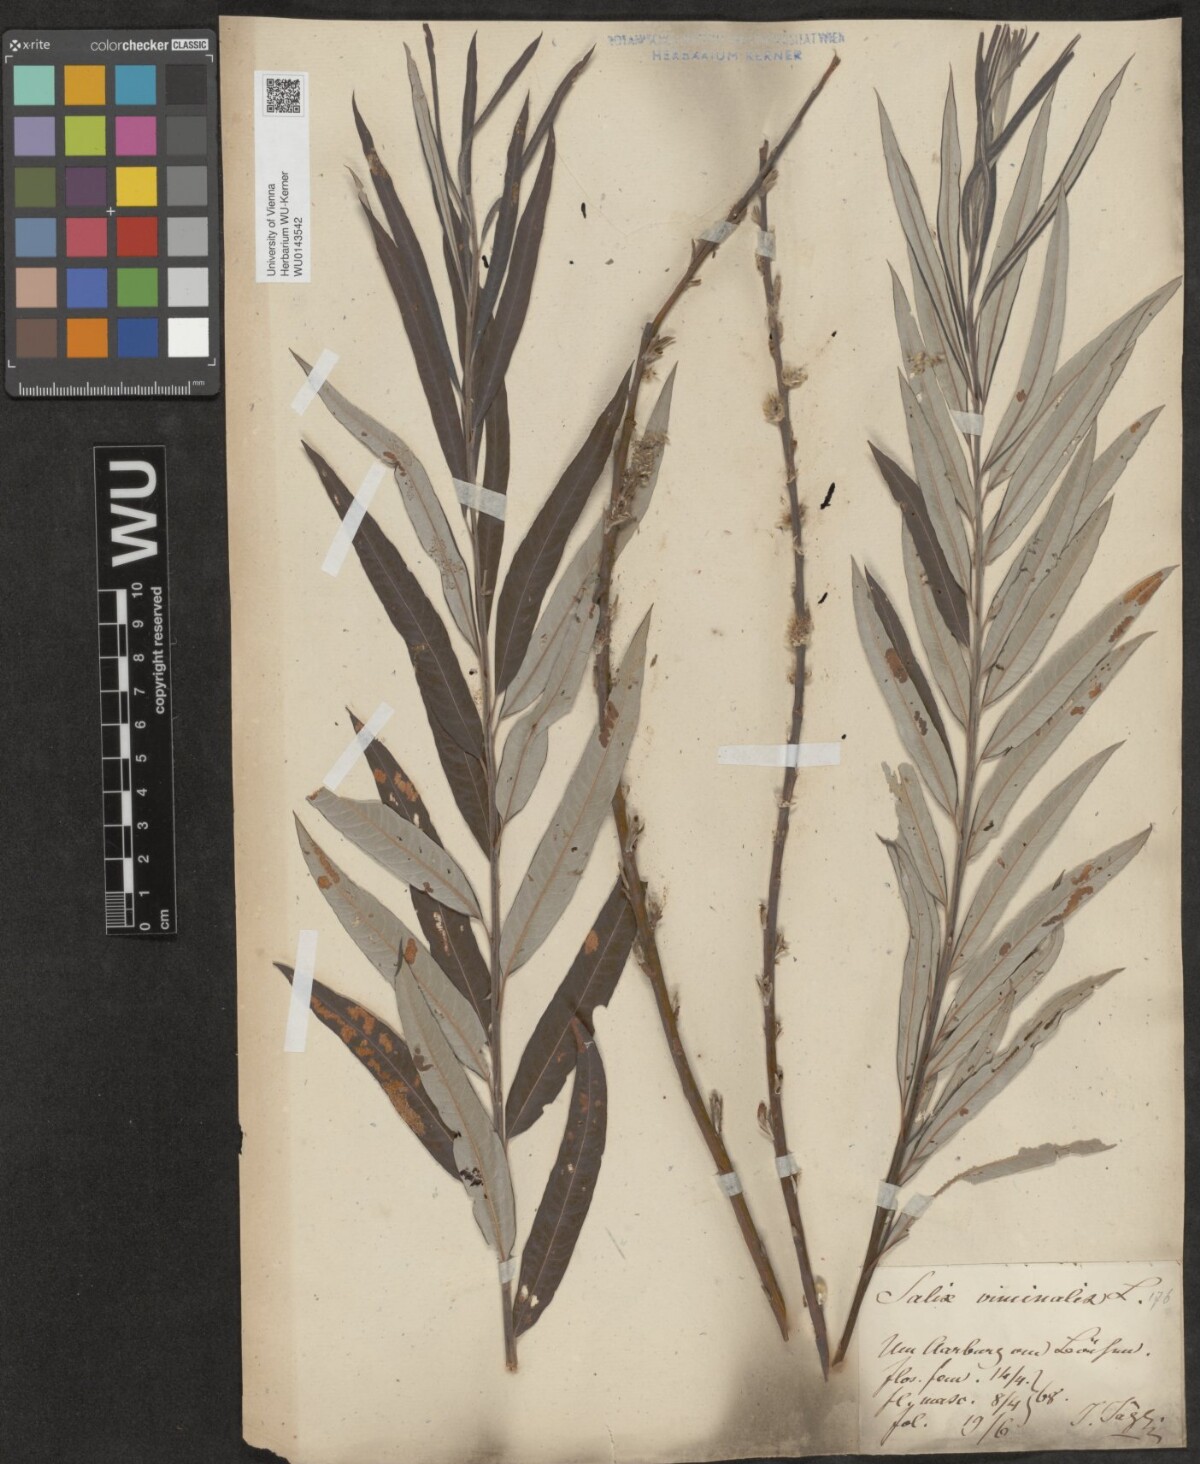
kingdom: Plantae
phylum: Tracheophyta
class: Magnoliopsida
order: Malpighiales
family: Salicaceae
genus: Salix
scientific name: Salix viminalis
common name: Osier
